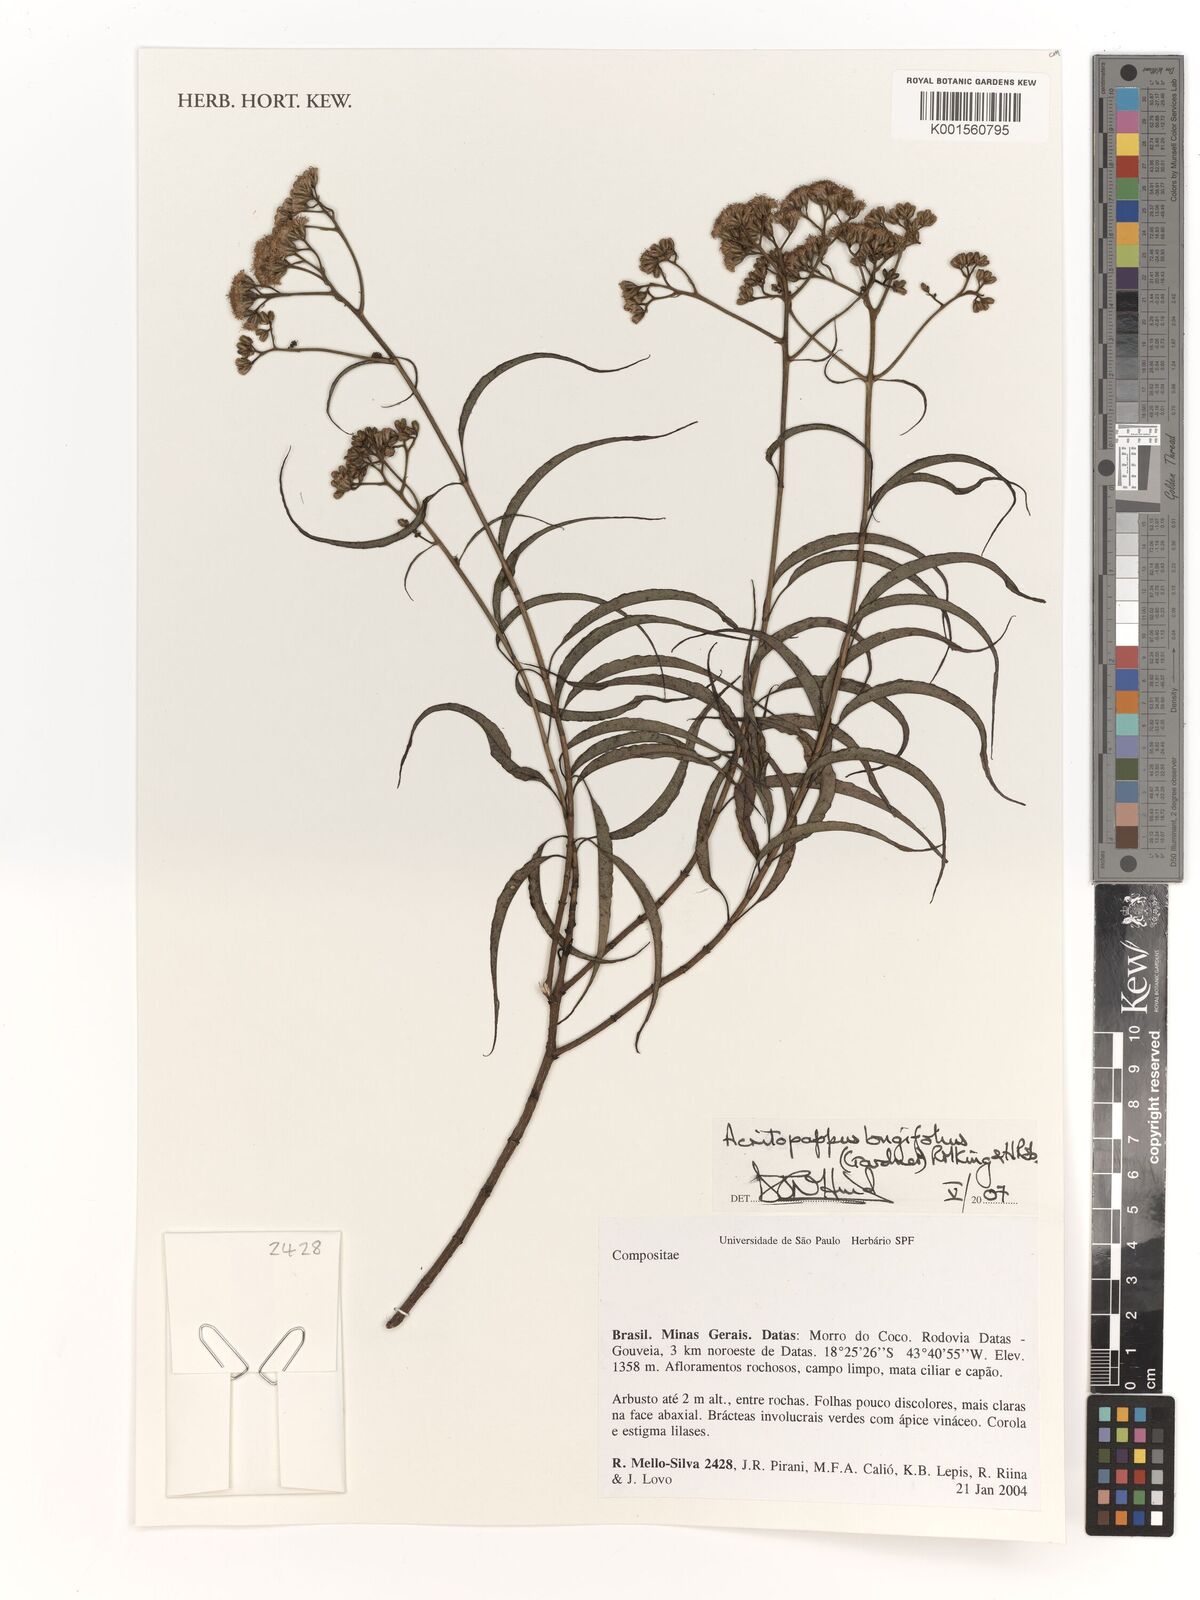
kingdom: Plantae
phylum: Tracheophyta
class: Magnoliopsida
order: Asterales
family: Asteraceae
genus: Acritopappus
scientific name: Acritopappus longifolius
